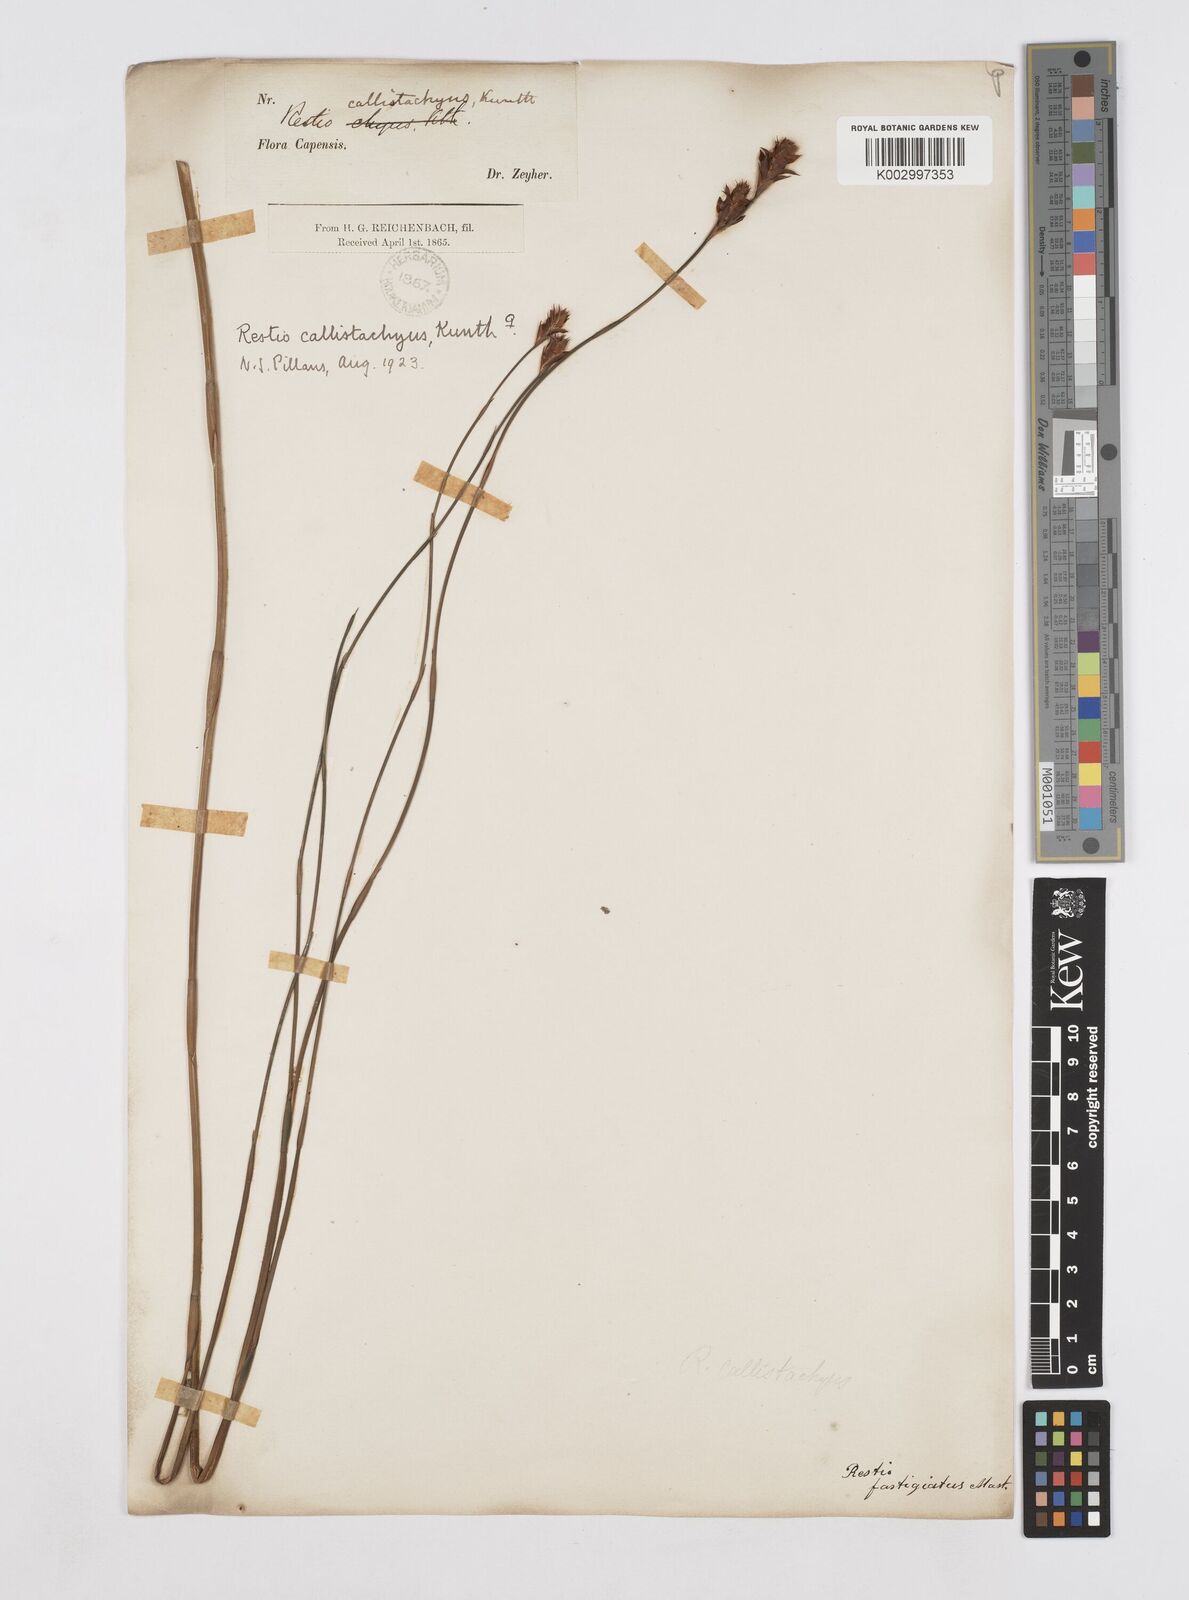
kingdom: Plantae
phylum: Tracheophyta
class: Liliopsida
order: Poales
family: Restionaceae
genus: Platycaulos
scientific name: Platycaulos callistachyus
